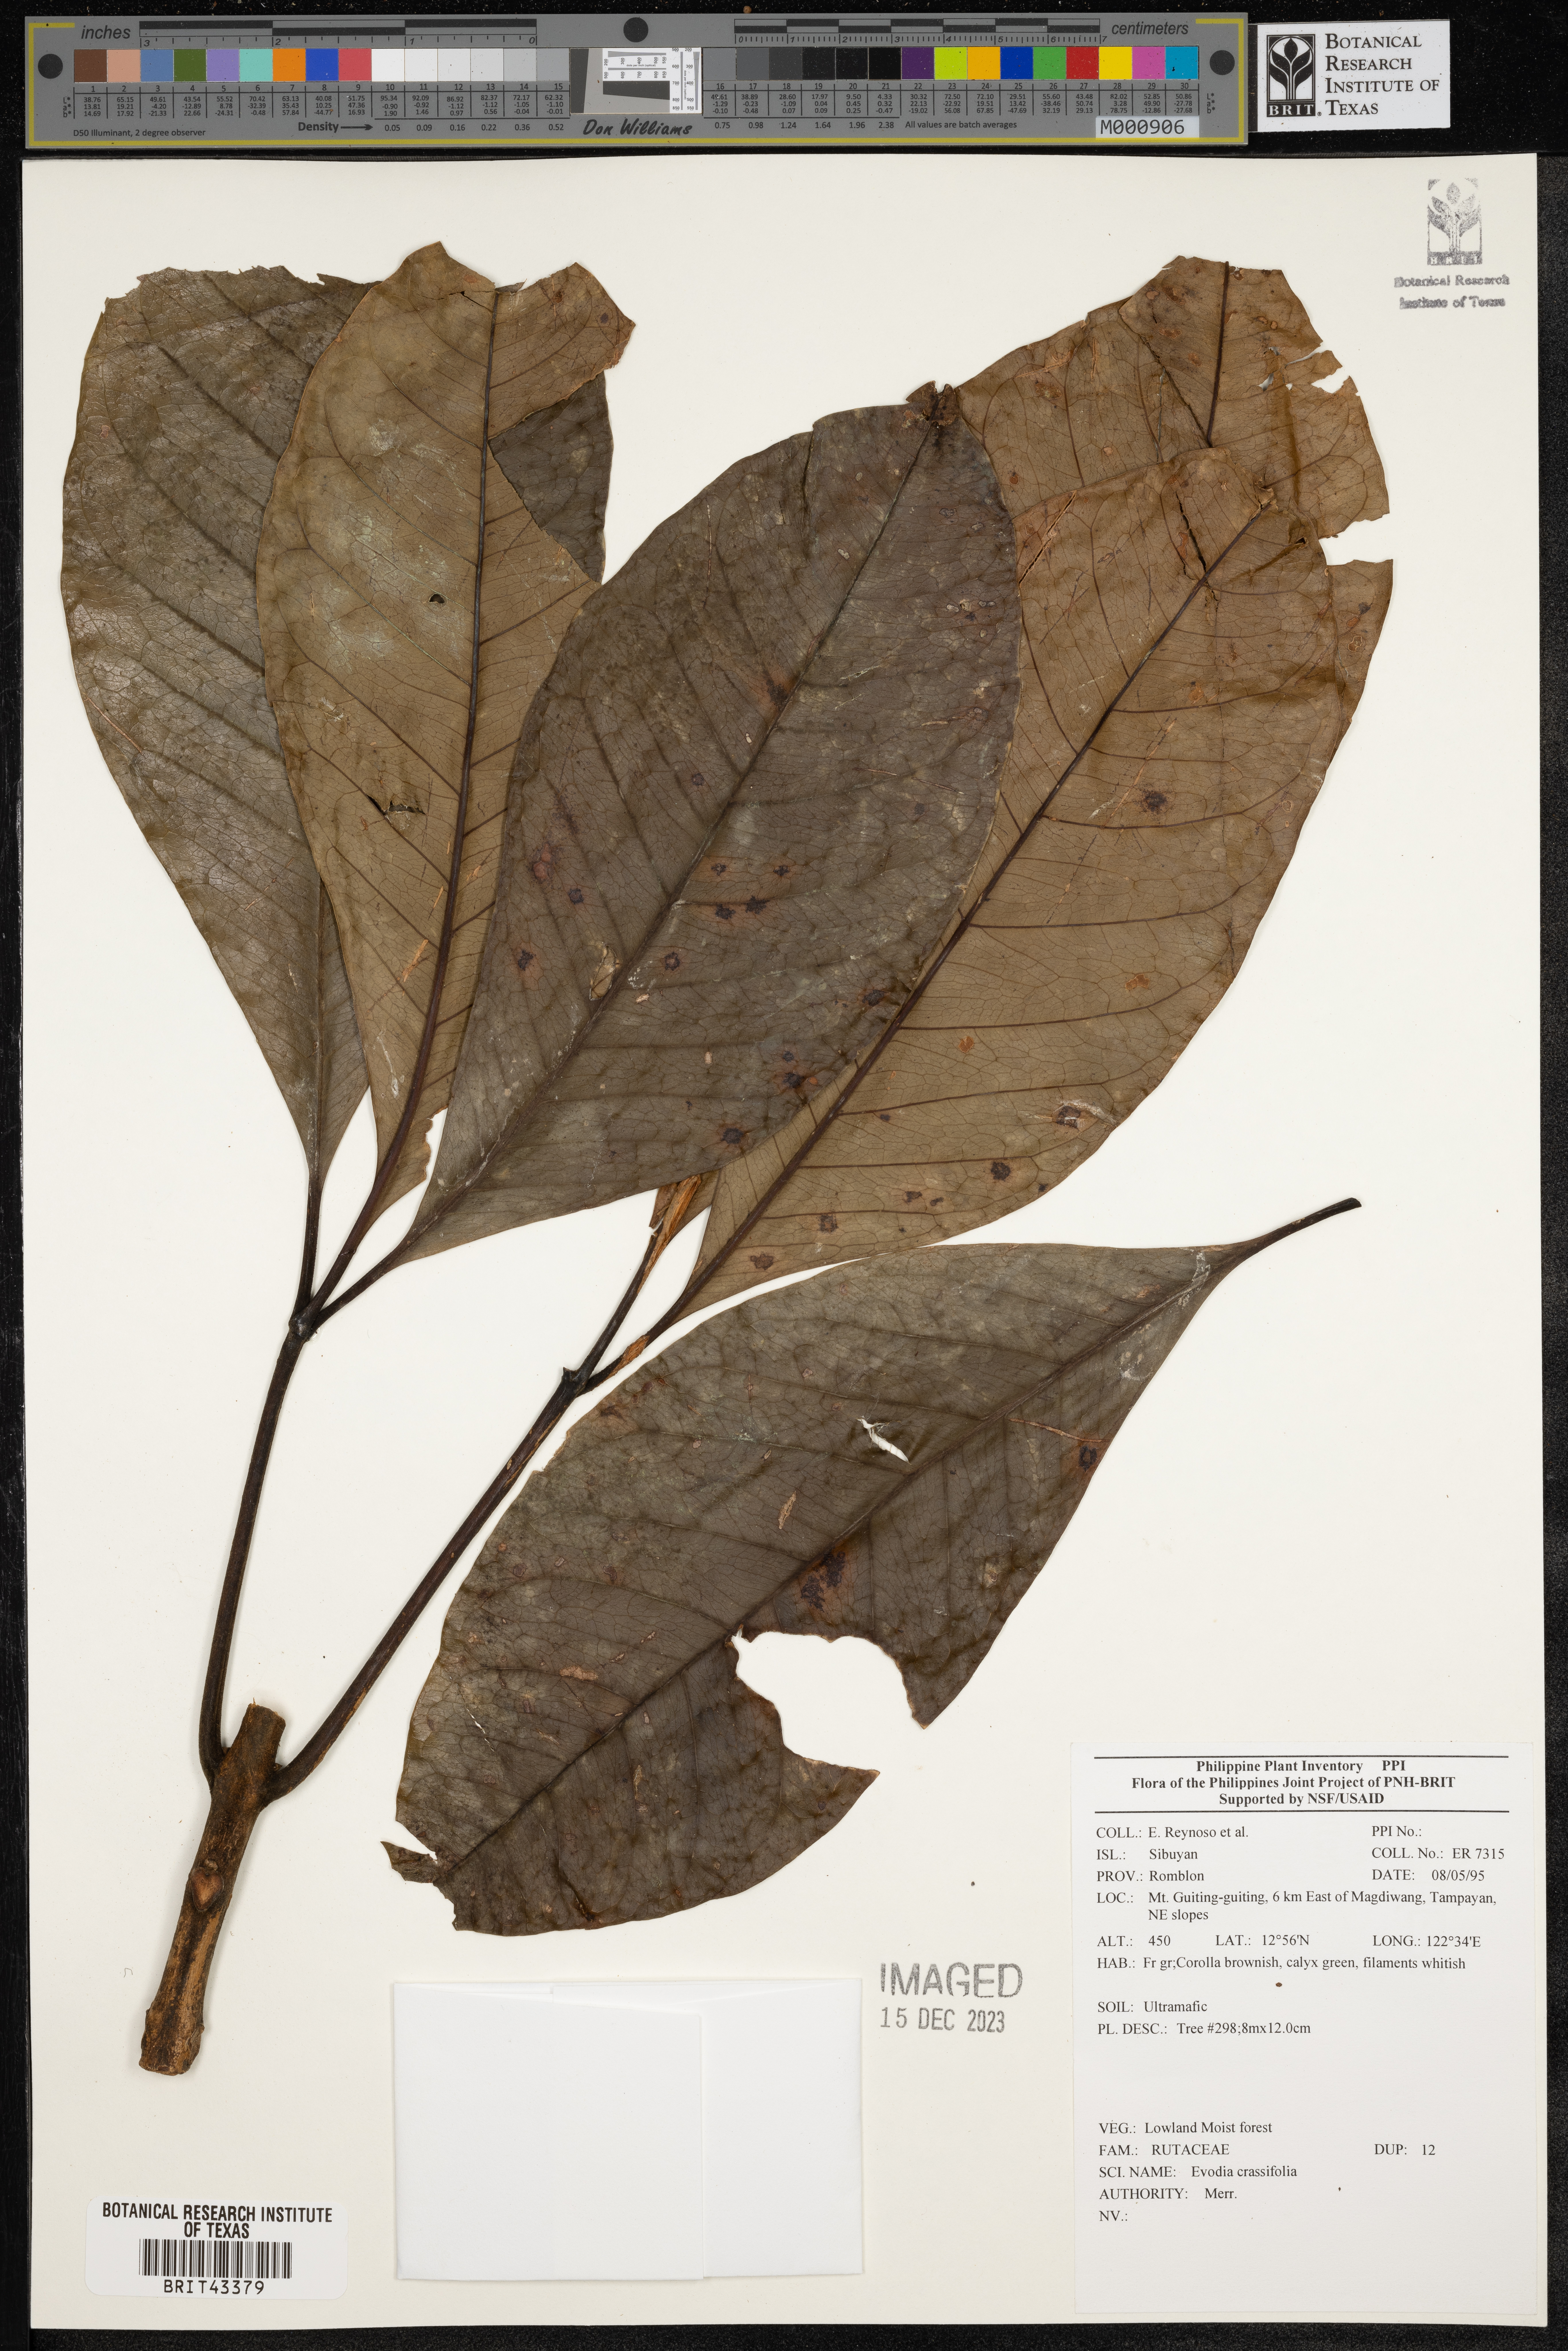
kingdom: Plantae
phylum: Tracheophyta
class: Magnoliopsida
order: Sapindales
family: Rutaceae
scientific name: Rutaceae
